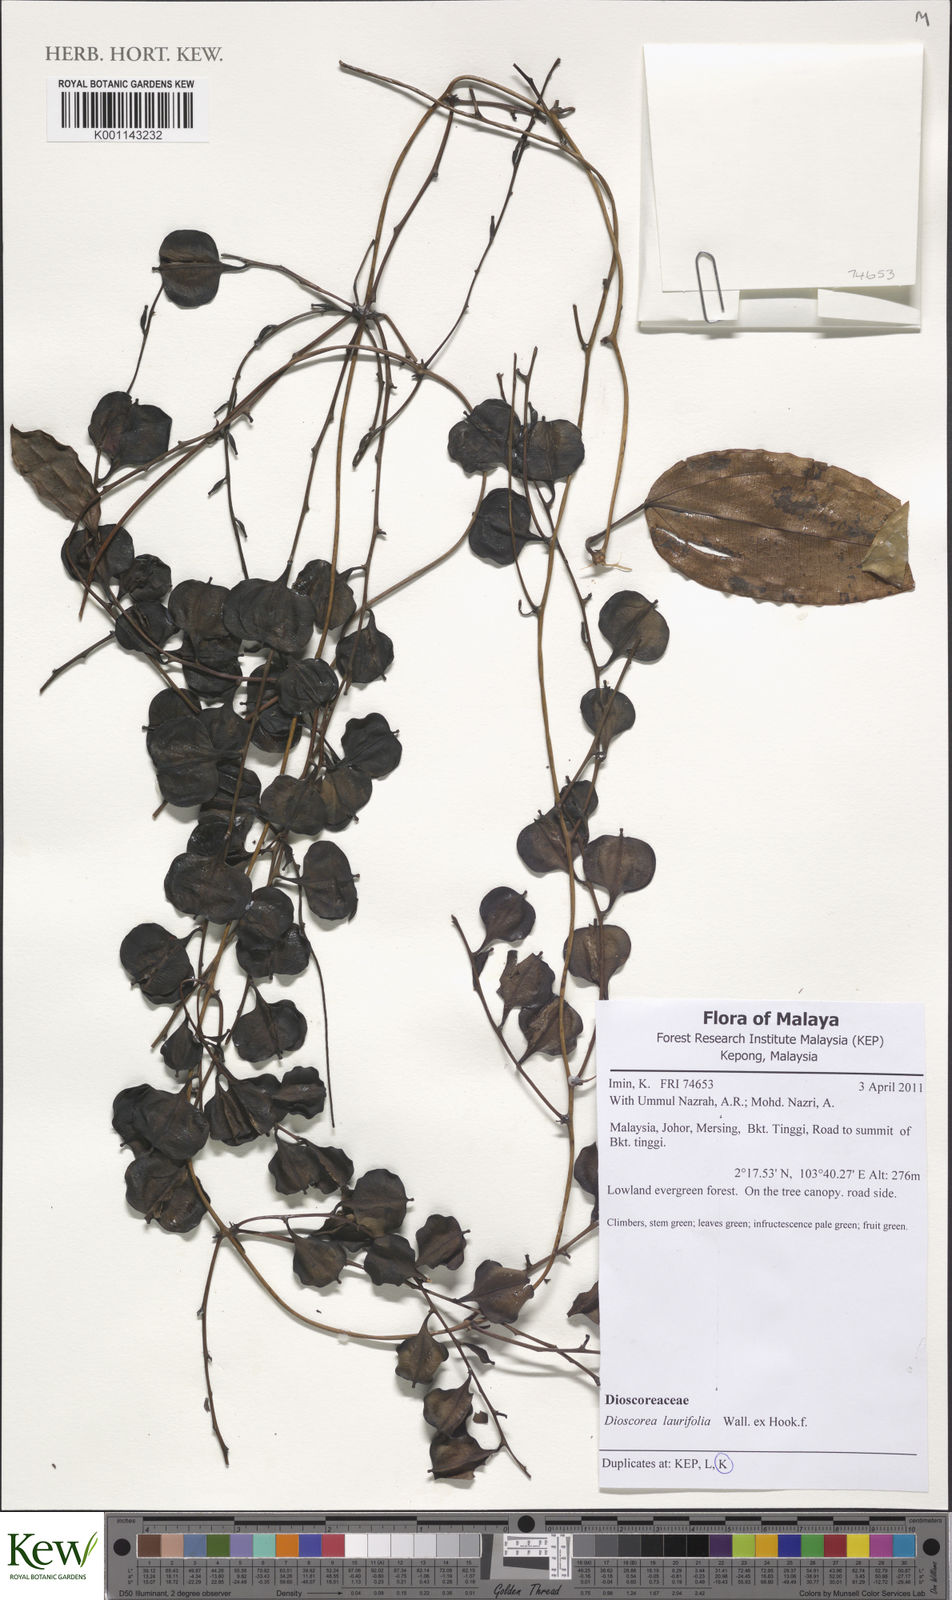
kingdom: Plantae
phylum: Tracheophyta
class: Liliopsida
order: Dioscoreales
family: Dioscoreaceae
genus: Dioscorea
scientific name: Dioscorea laurifolia
